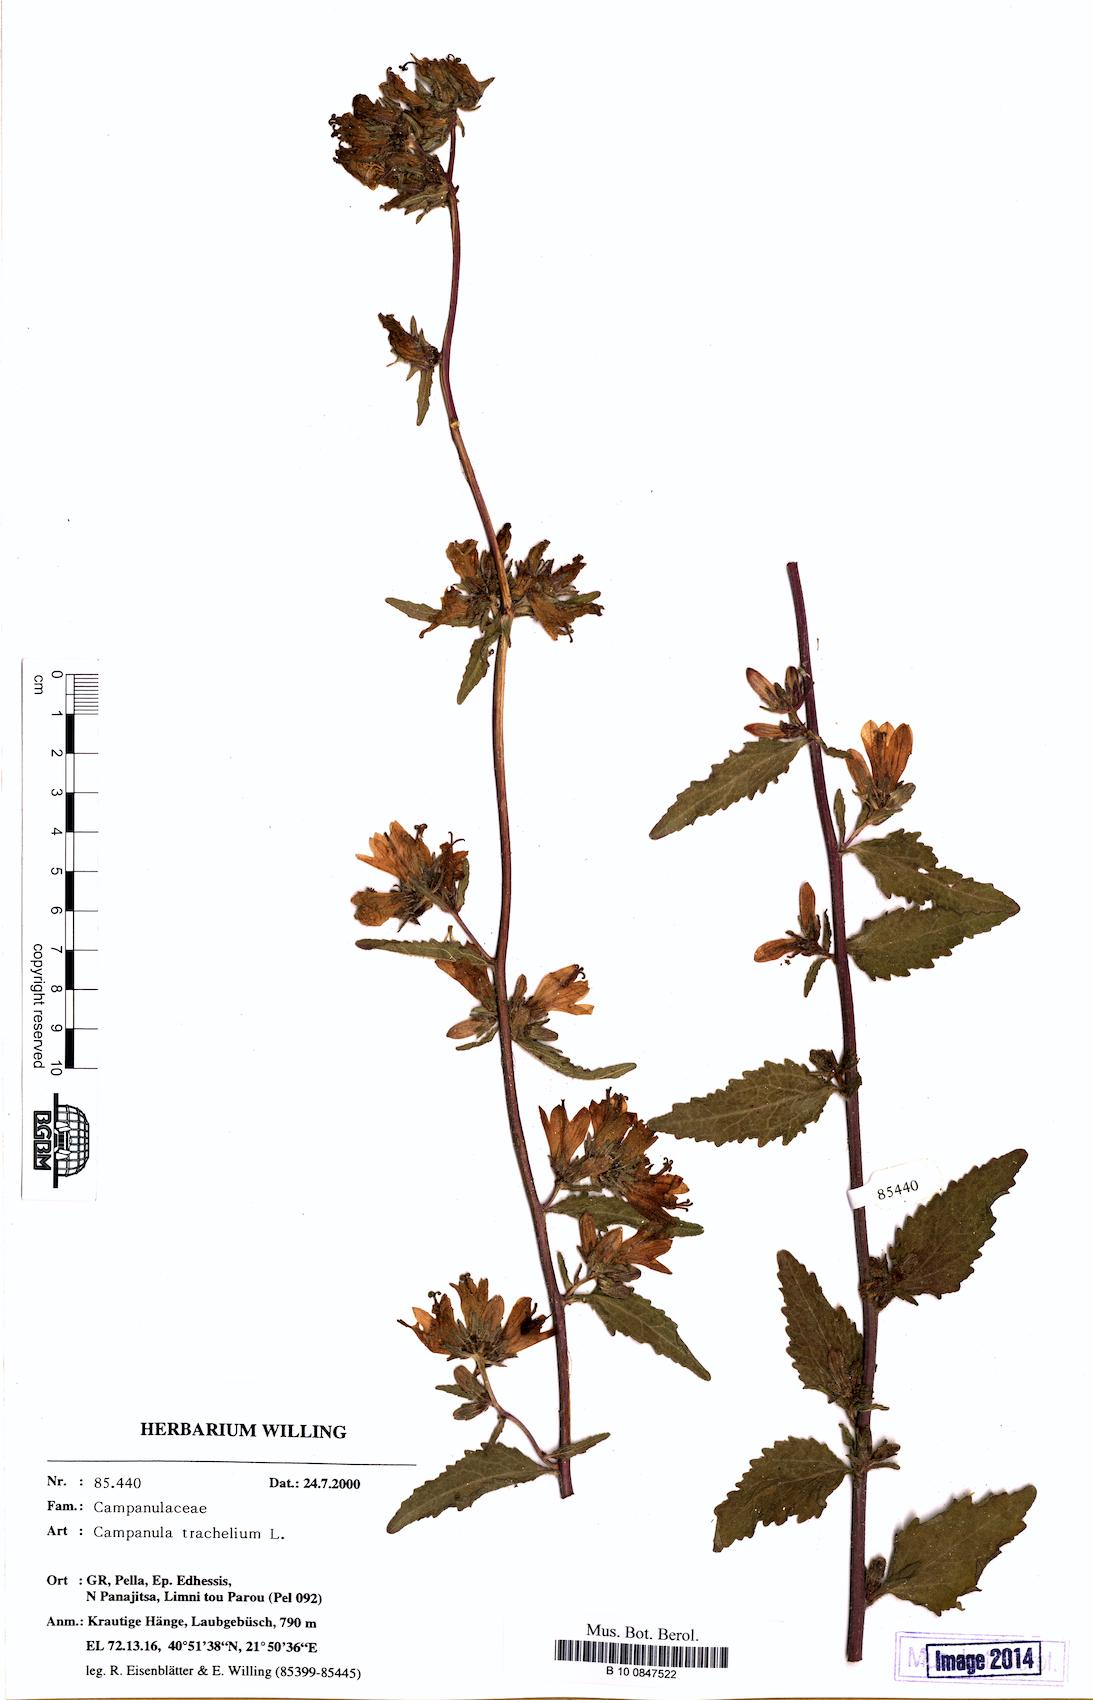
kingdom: Plantae
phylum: Tracheophyta
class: Magnoliopsida
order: Asterales
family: Campanulaceae
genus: Campanula
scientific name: Campanula trachelium
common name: Nettle-leaved bellflower
